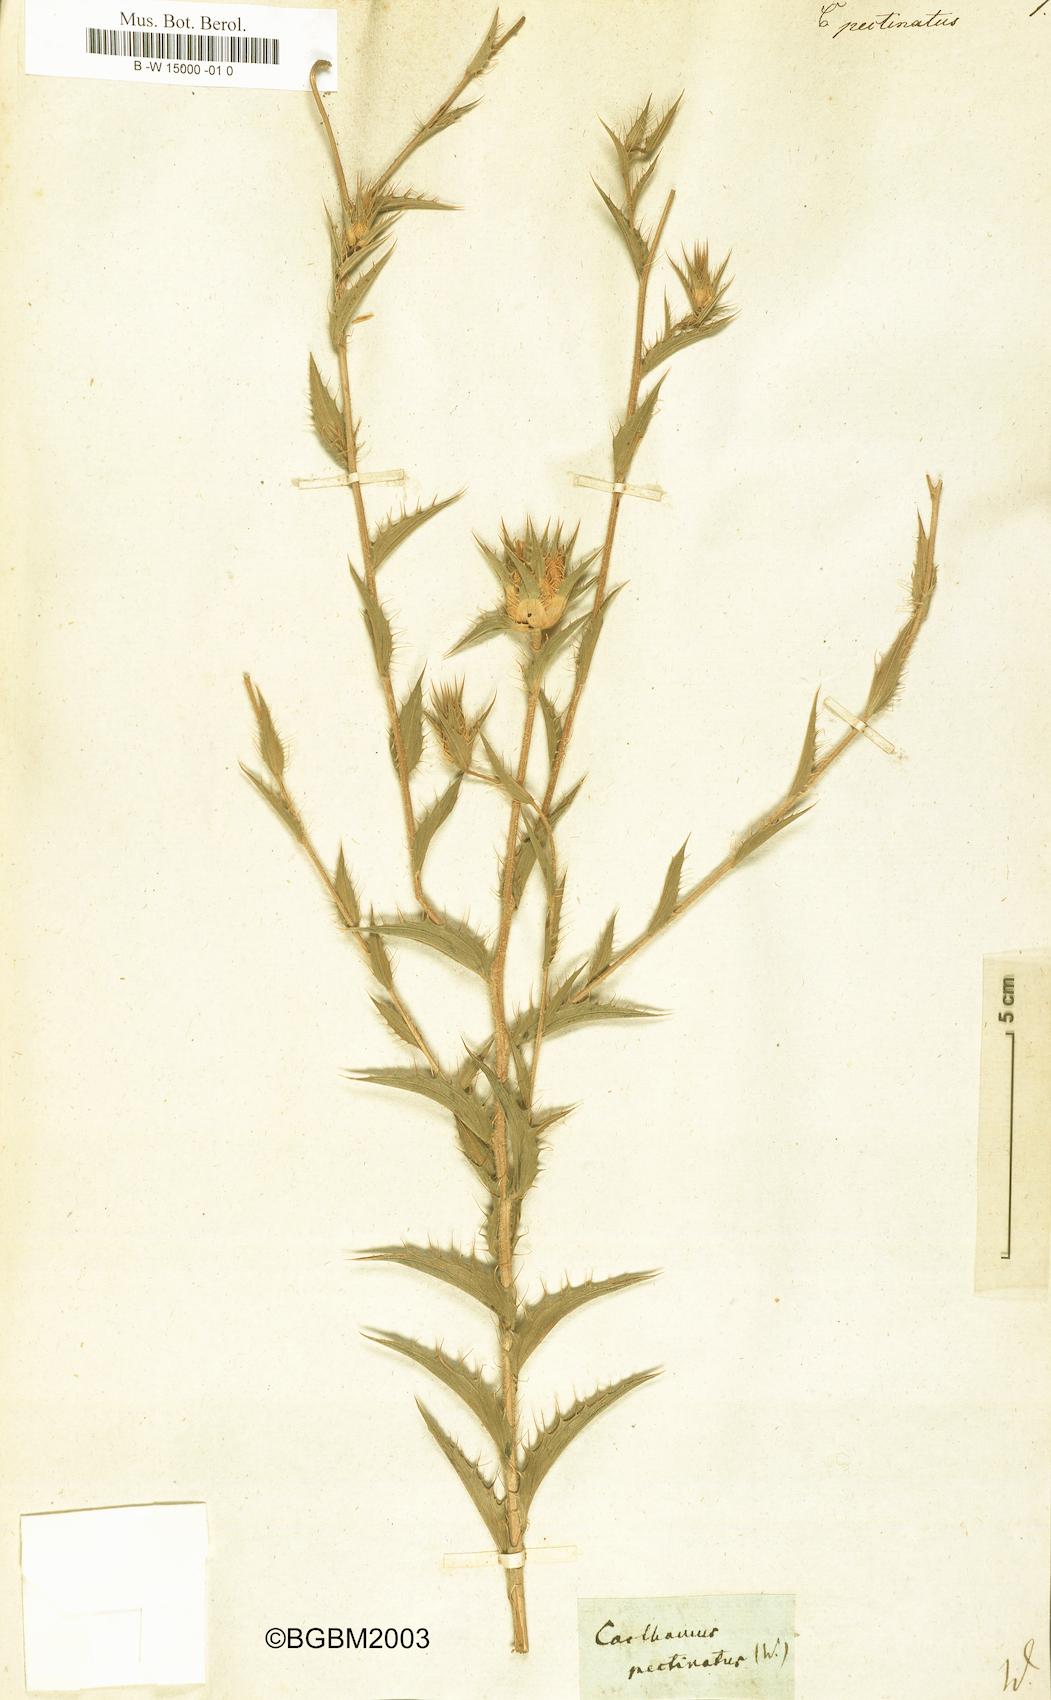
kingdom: Plantae
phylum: Tracheophyta
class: Magnoliopsida
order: Asterales
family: Asteraceae
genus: Carduncellus
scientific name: Carduncellus pectinatus
